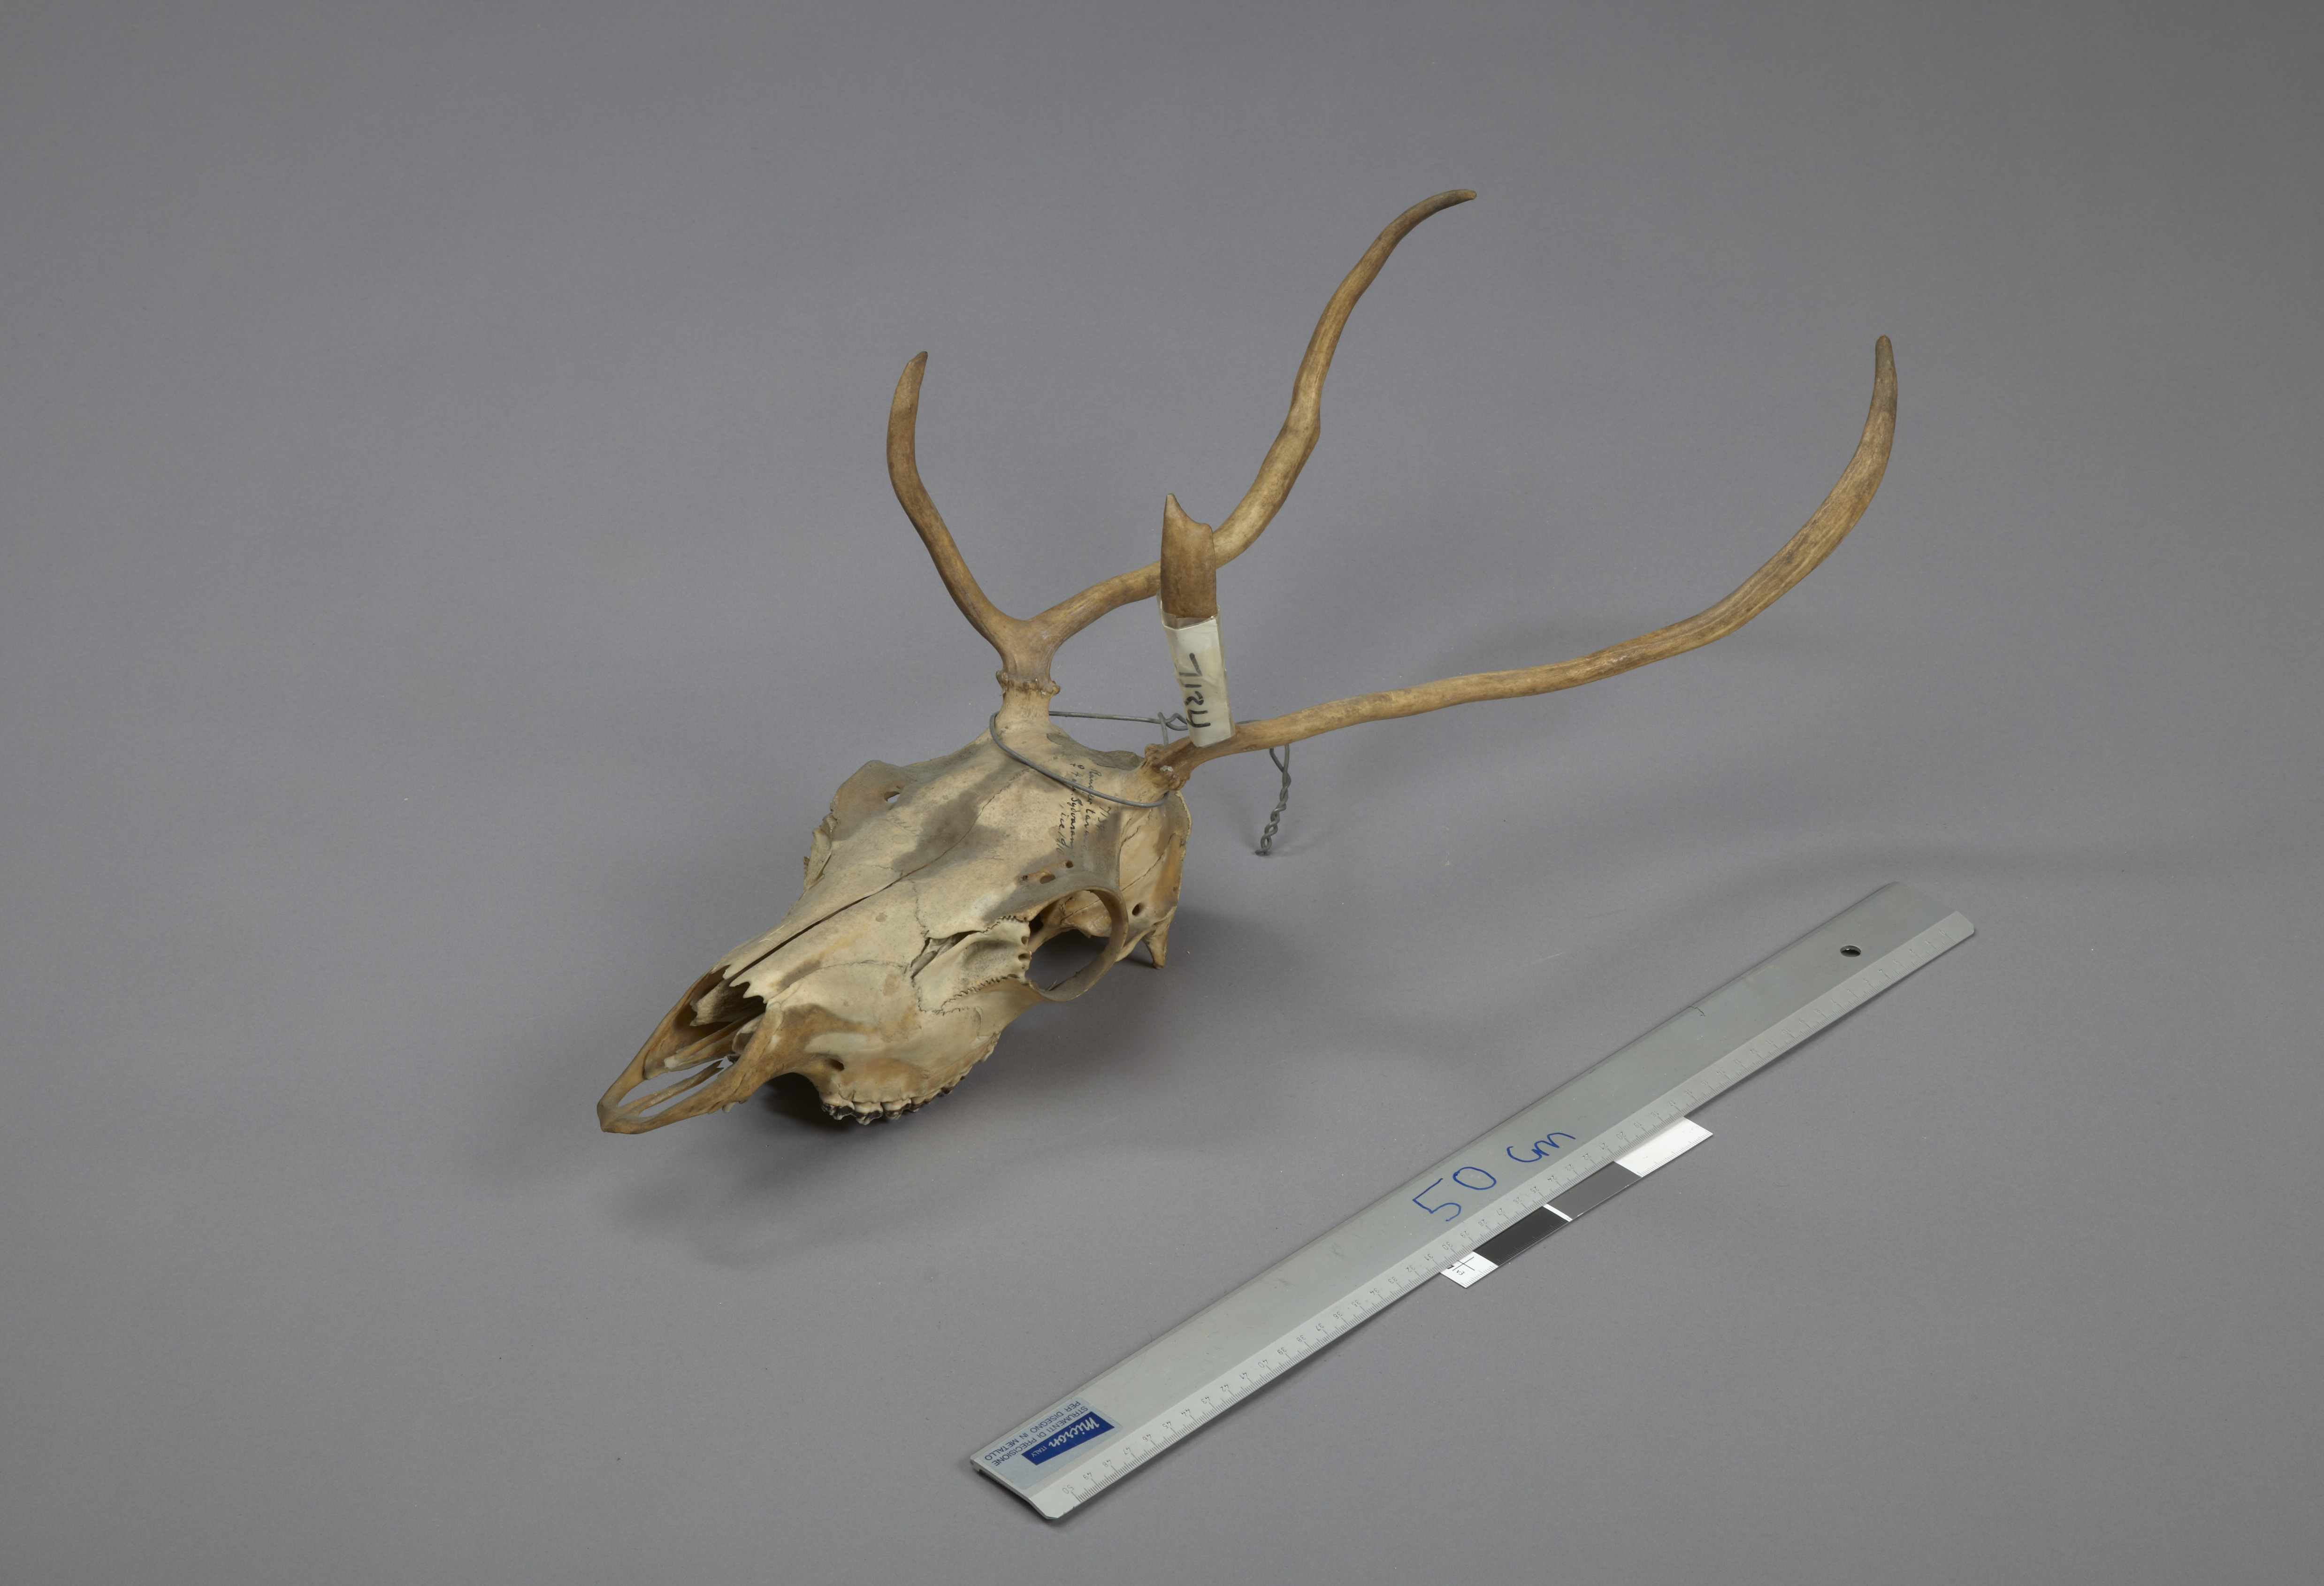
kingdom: Animalia
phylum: Chordata
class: Mammalia
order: Artiodactyla
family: Cervidae
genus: Rangifer
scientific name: Rangifer tarandus
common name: Reindeer
